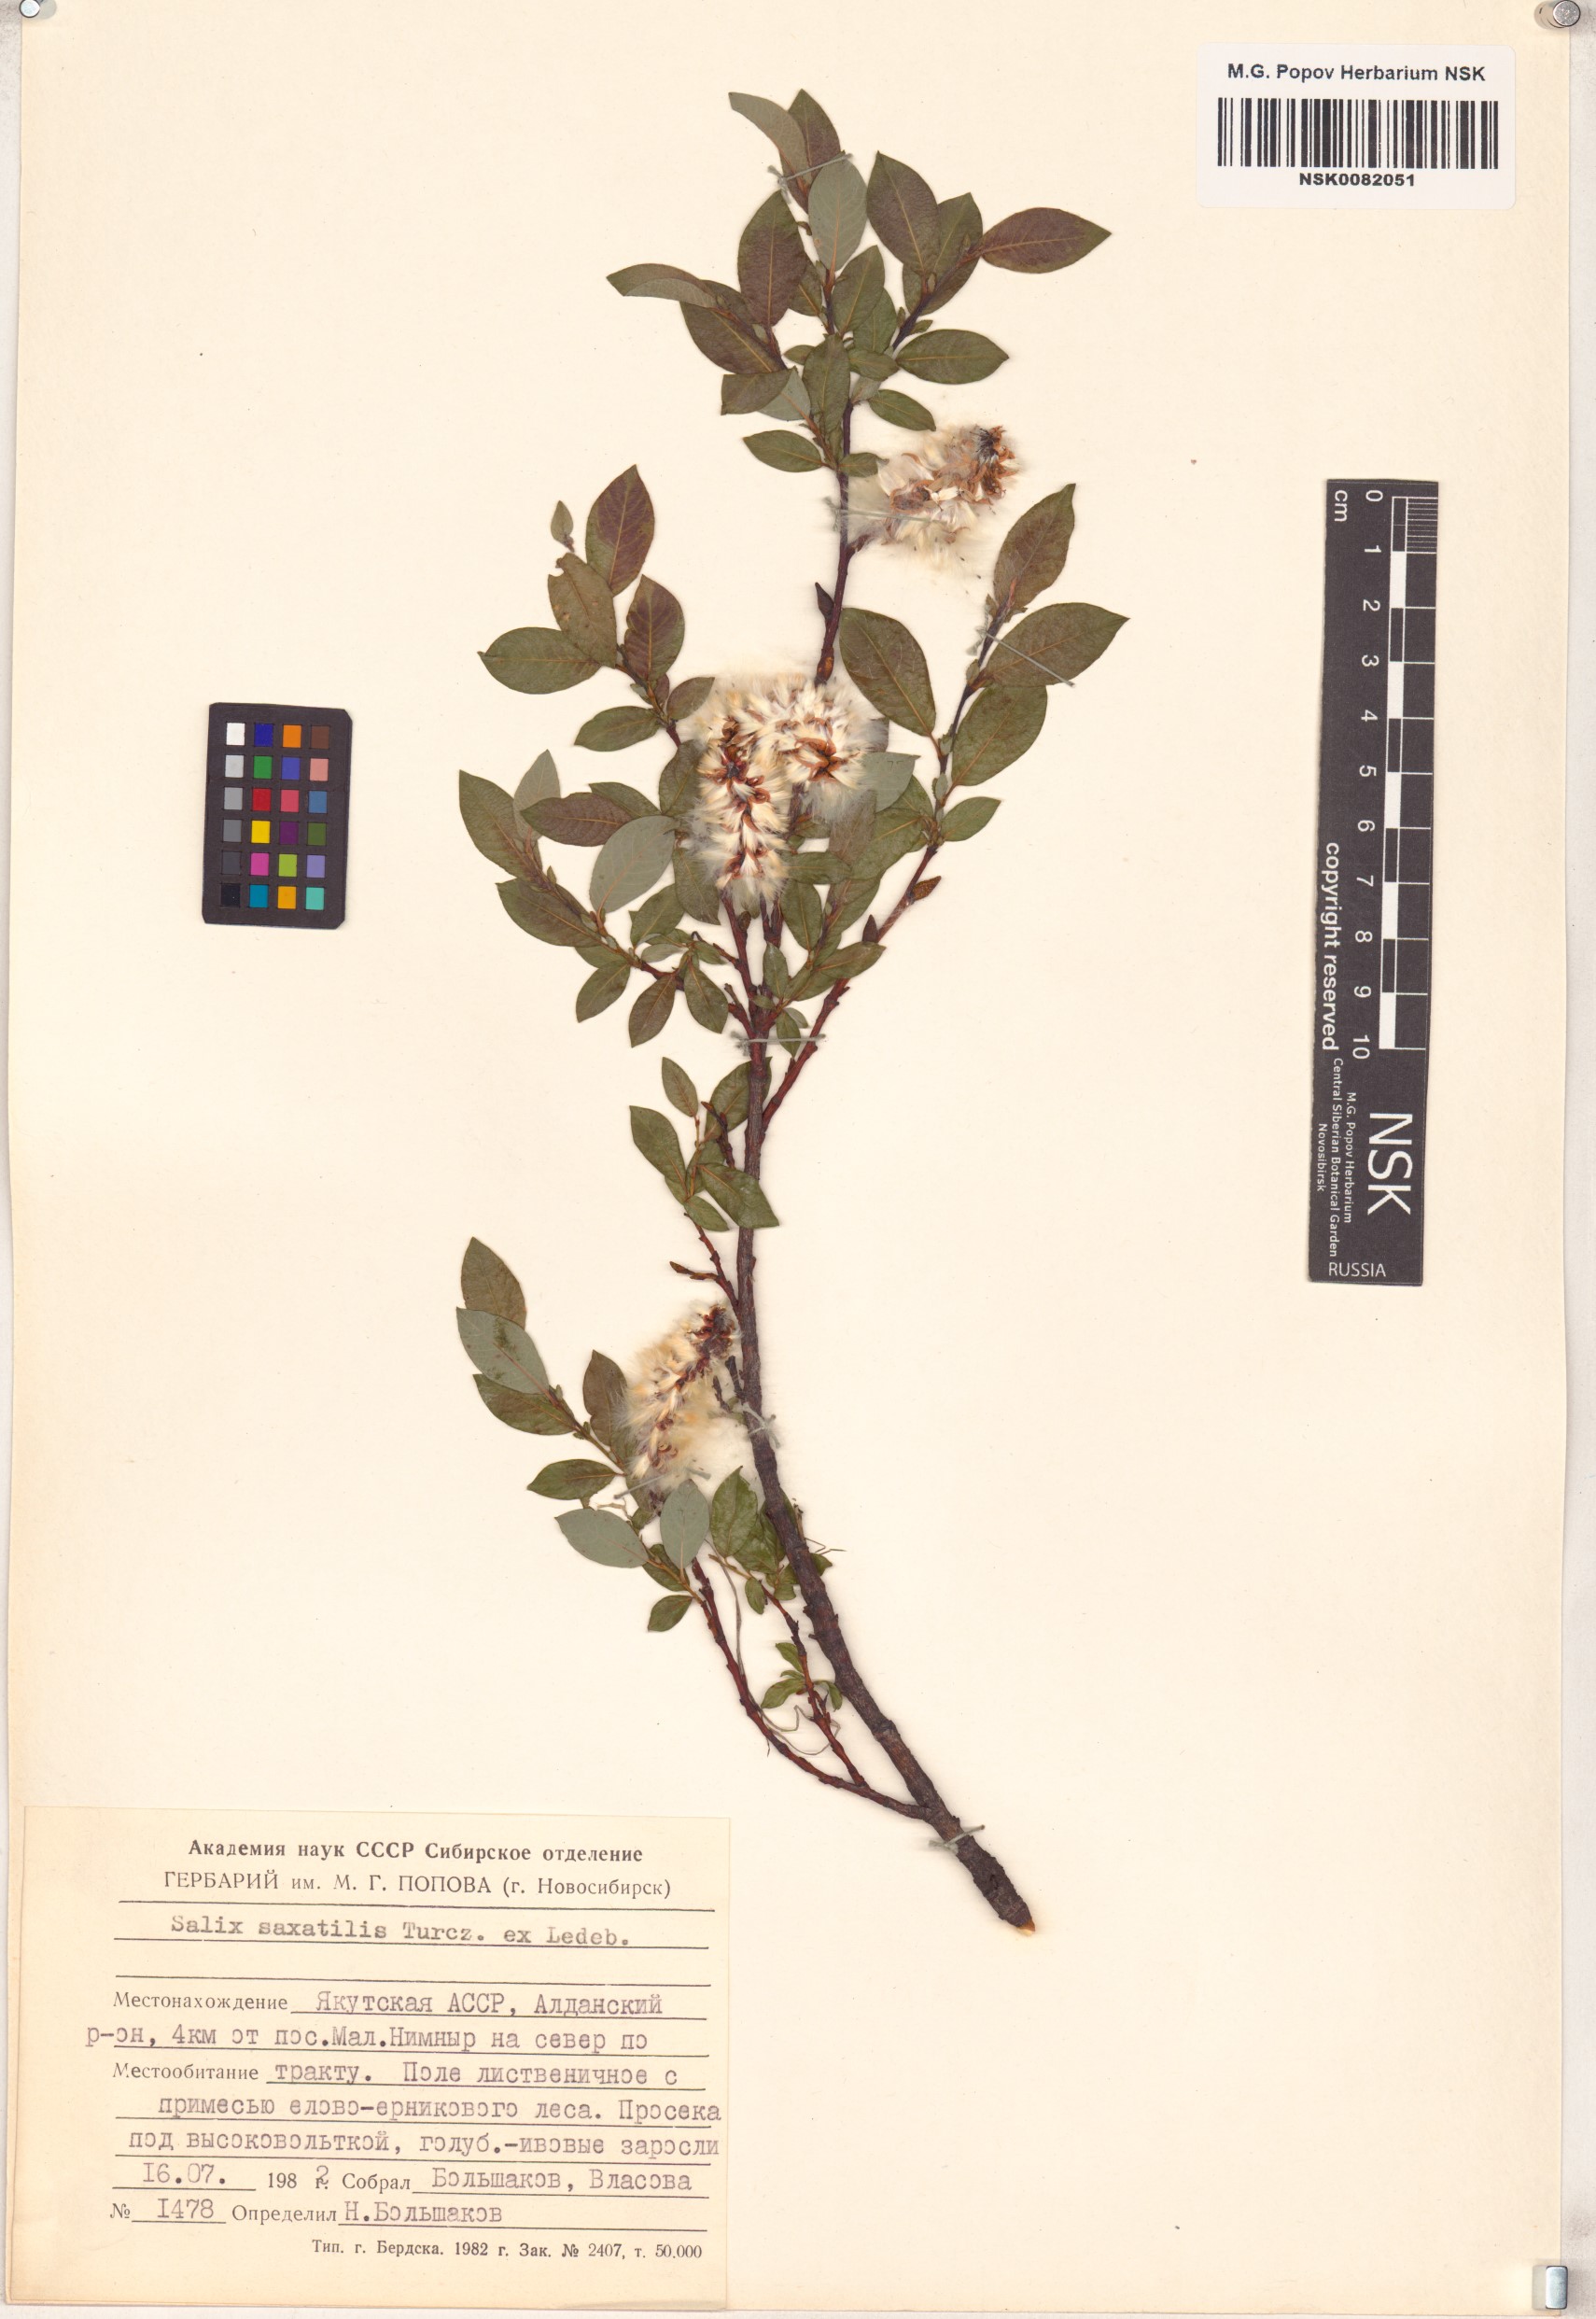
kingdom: Plantae
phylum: Tracheophyta
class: Magnoliopsida
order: Malpighiales
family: Salicaceae
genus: Salix
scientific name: Salix saxatilis
